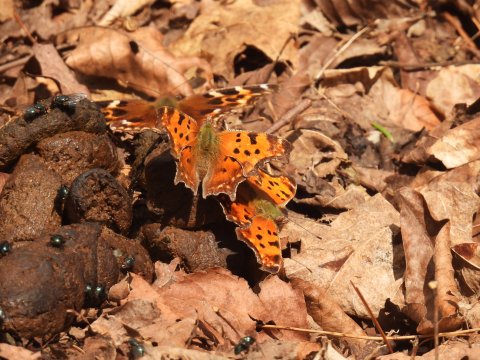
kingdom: Animalia
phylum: Arthropoda
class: Insecta
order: Lepidoptera
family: Nymphalidae
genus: Polygonia
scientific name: Polygonia comma
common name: Eastern Comma
